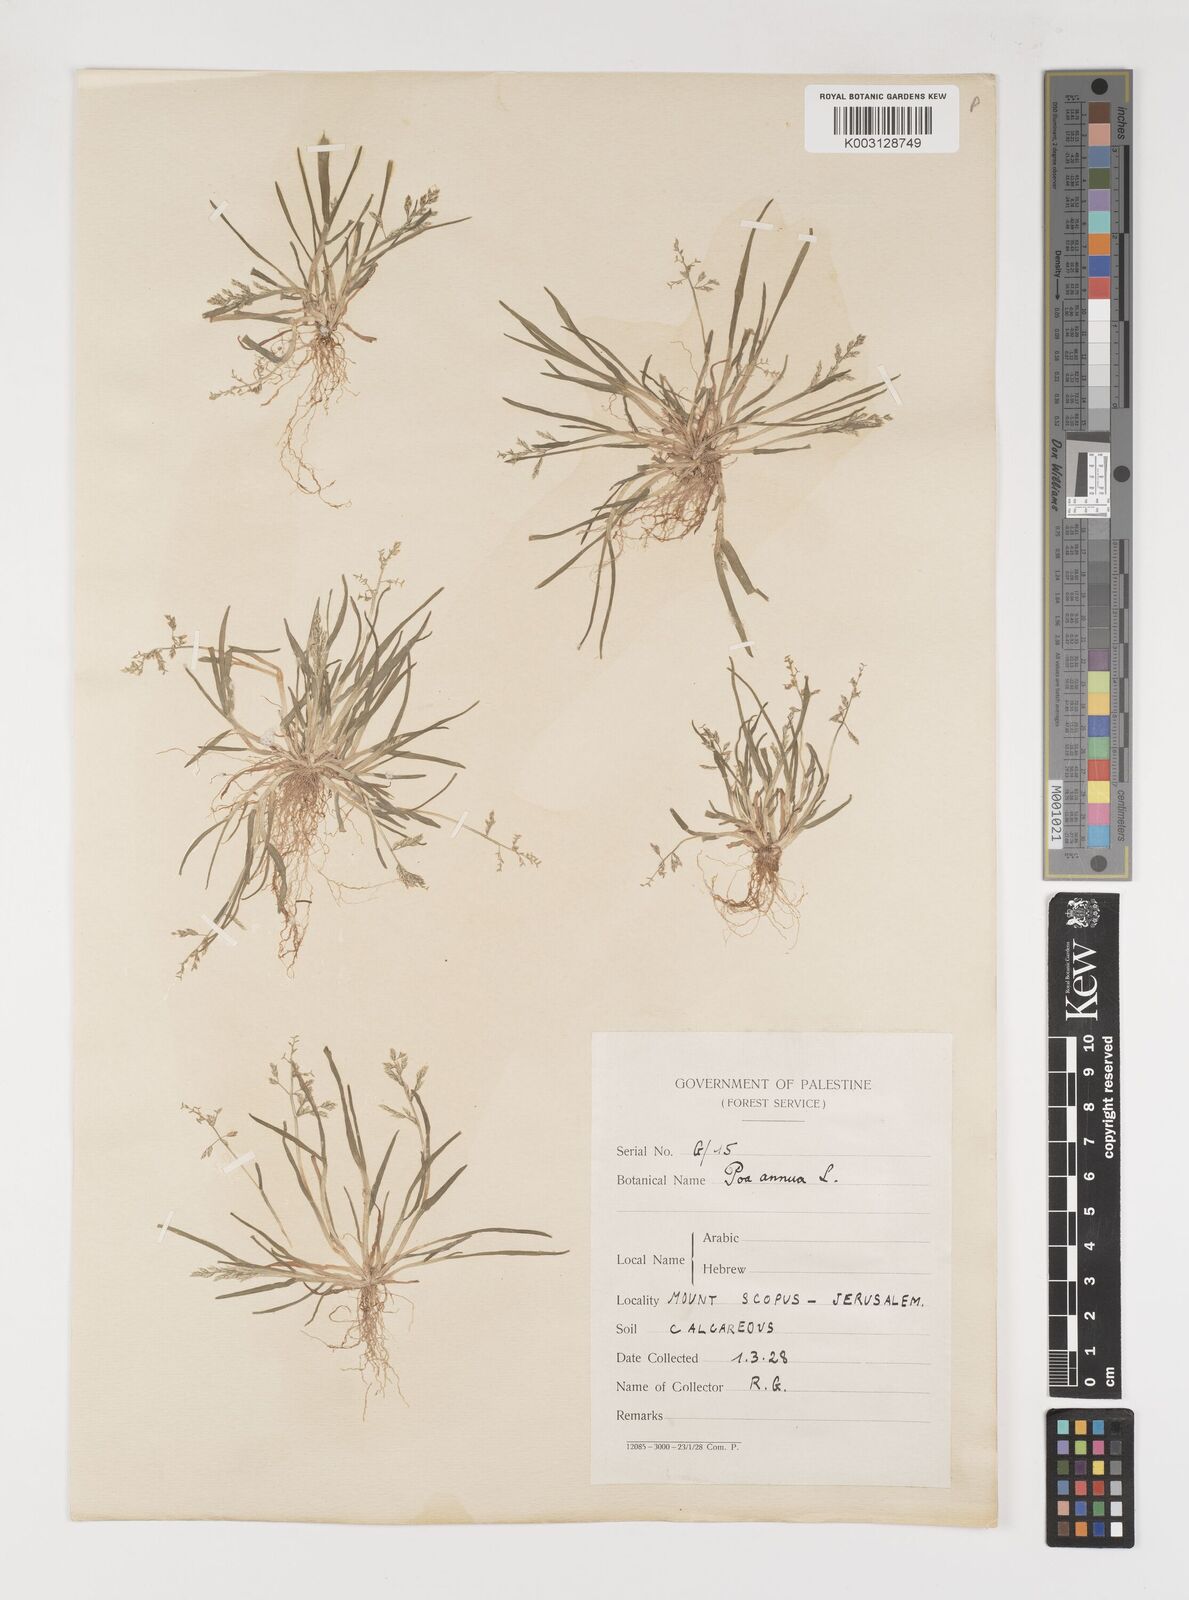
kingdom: Plantae
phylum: Tracheophyta
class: Liliopsida
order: Poales
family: Poaceae
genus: Poa
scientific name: Poa infirma
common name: Weak bluegrass
